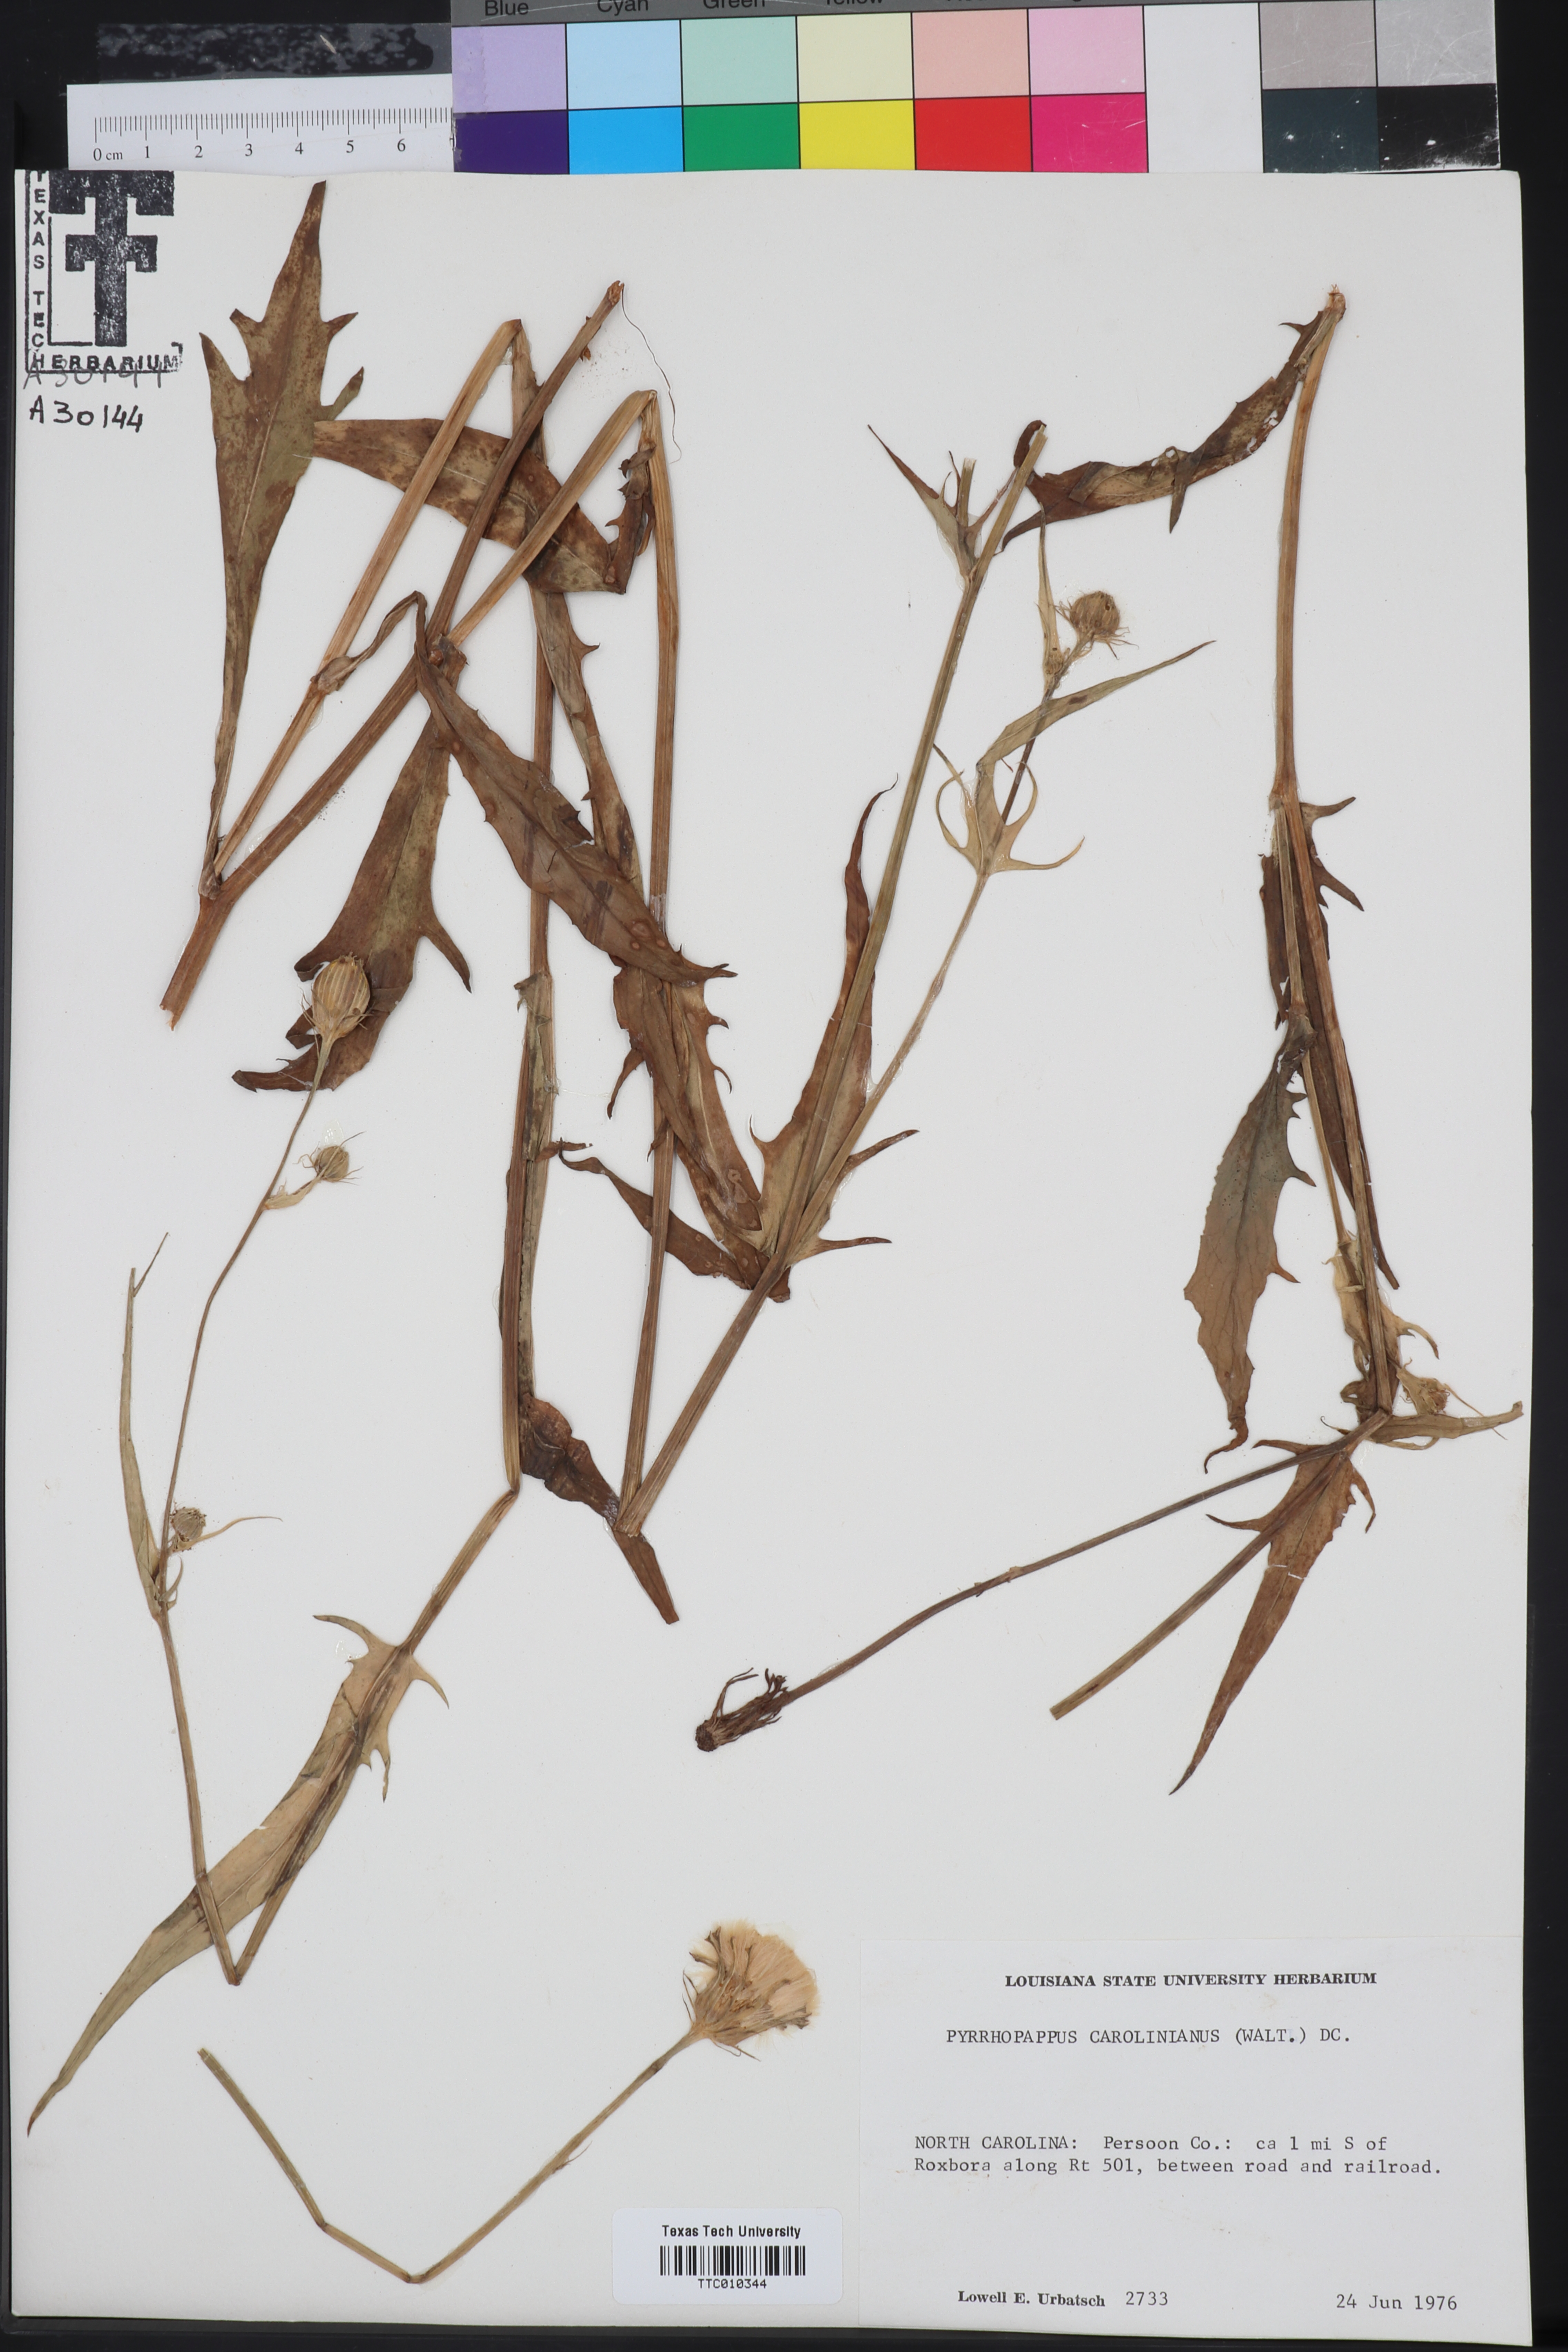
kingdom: Plantae
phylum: Tracheophyta
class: Magnoliopsida
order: Asterales
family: Asteraceae
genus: Pyrrhopappus
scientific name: Pyrrhopappus carolinianus
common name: Carolina desert-chicory
